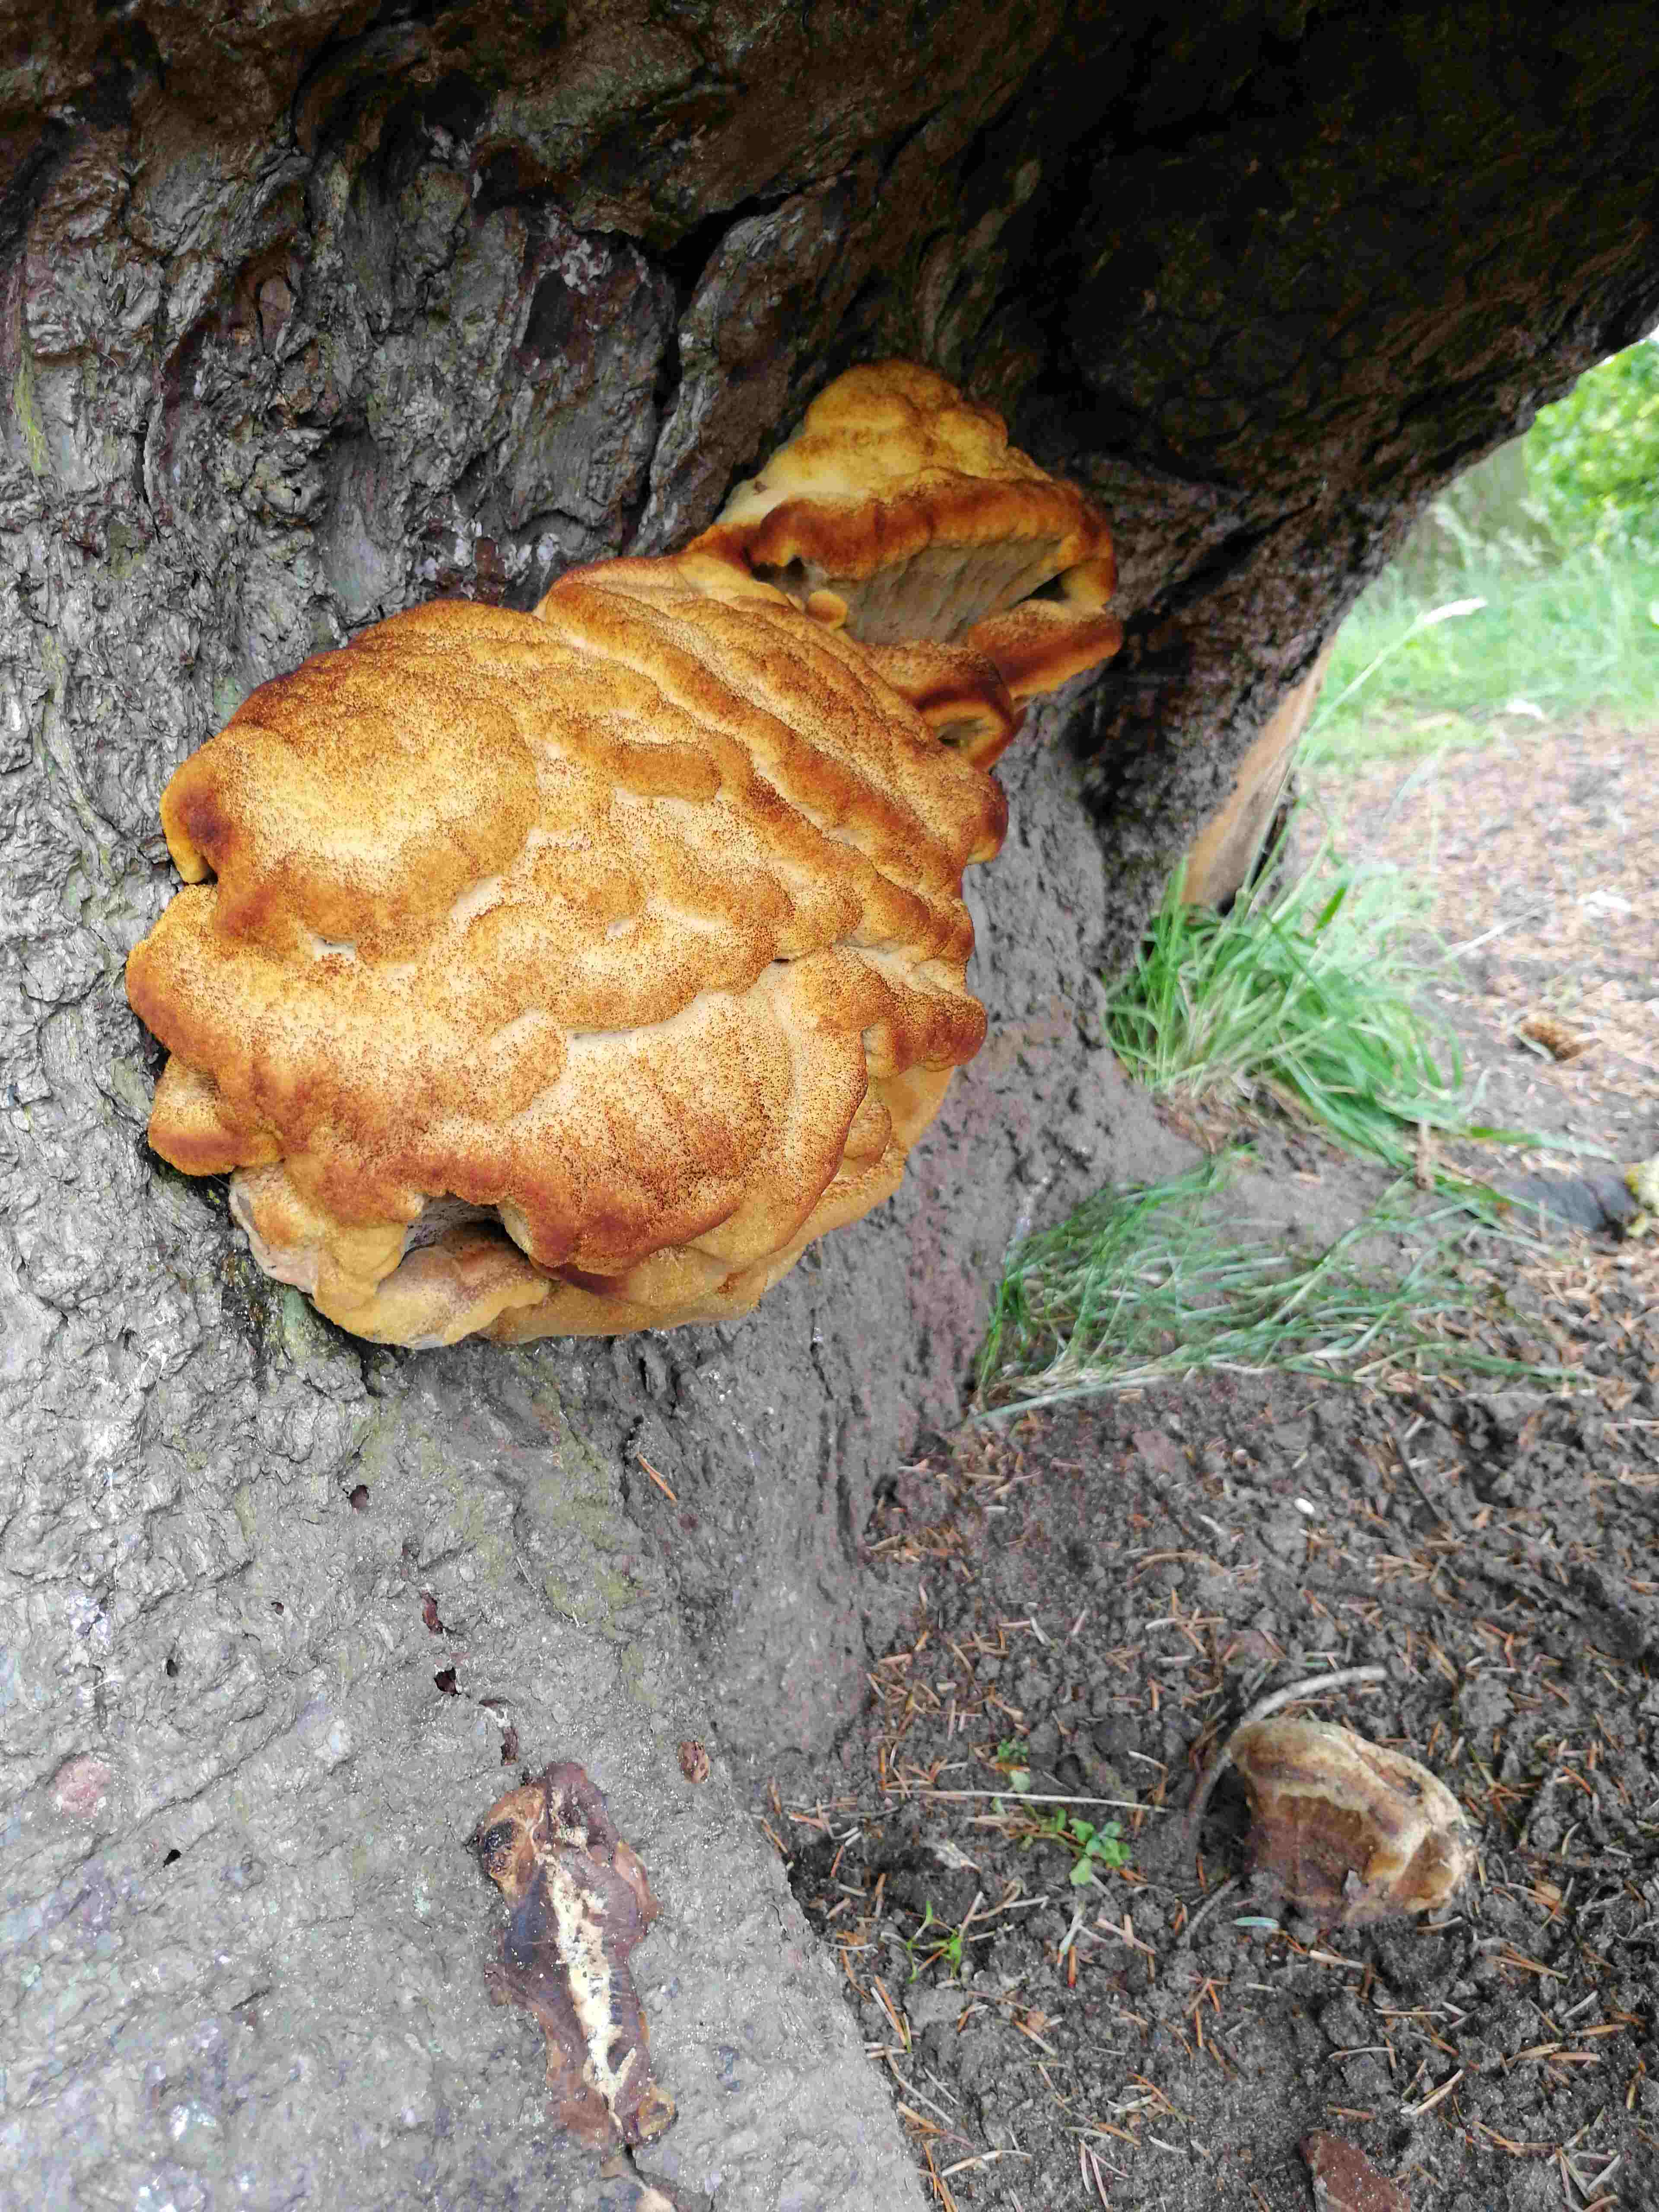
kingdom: Fungi
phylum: Basidiomycota
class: Agaricomycetes
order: Polyporales
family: Laetiporaceae
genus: Phaeolus
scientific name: Phaeolus schweinitzii
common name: brunporesvamp
